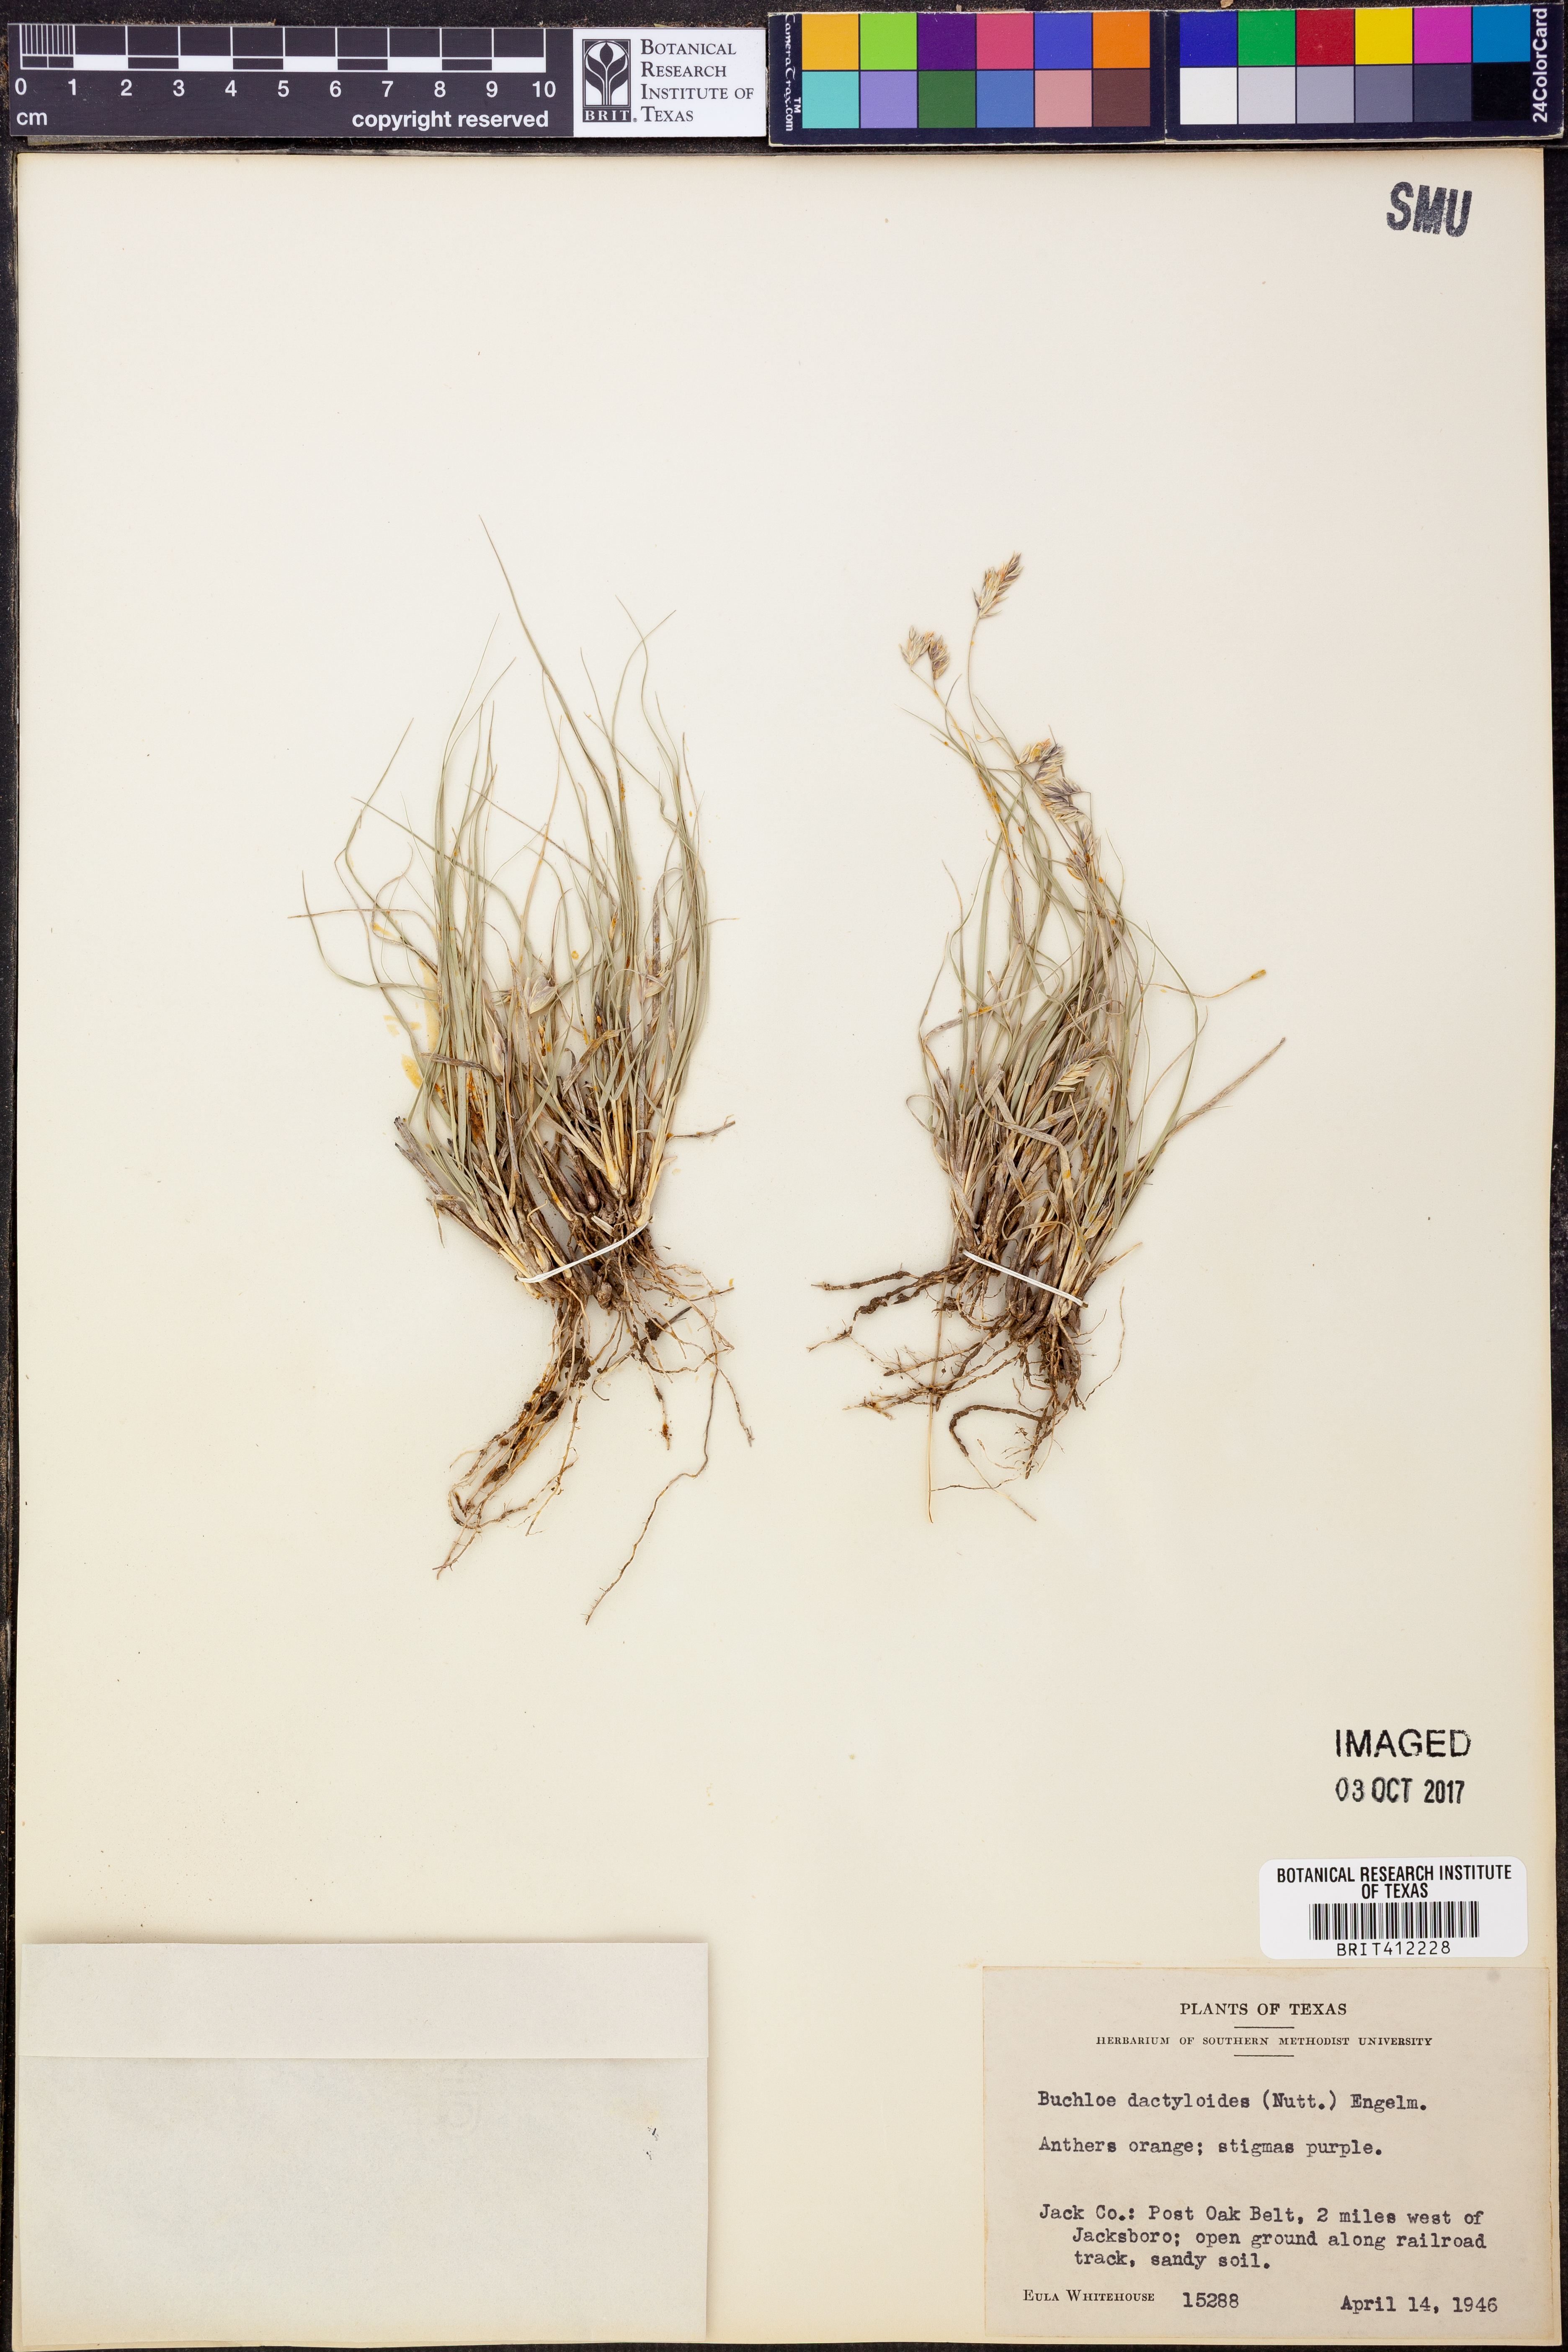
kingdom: Plantae
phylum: Tracheophyta
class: Liliopsida
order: Poales
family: Poaceae
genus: Bouteloua
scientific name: Bouteloua dactyloides
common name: Buffalo grass
